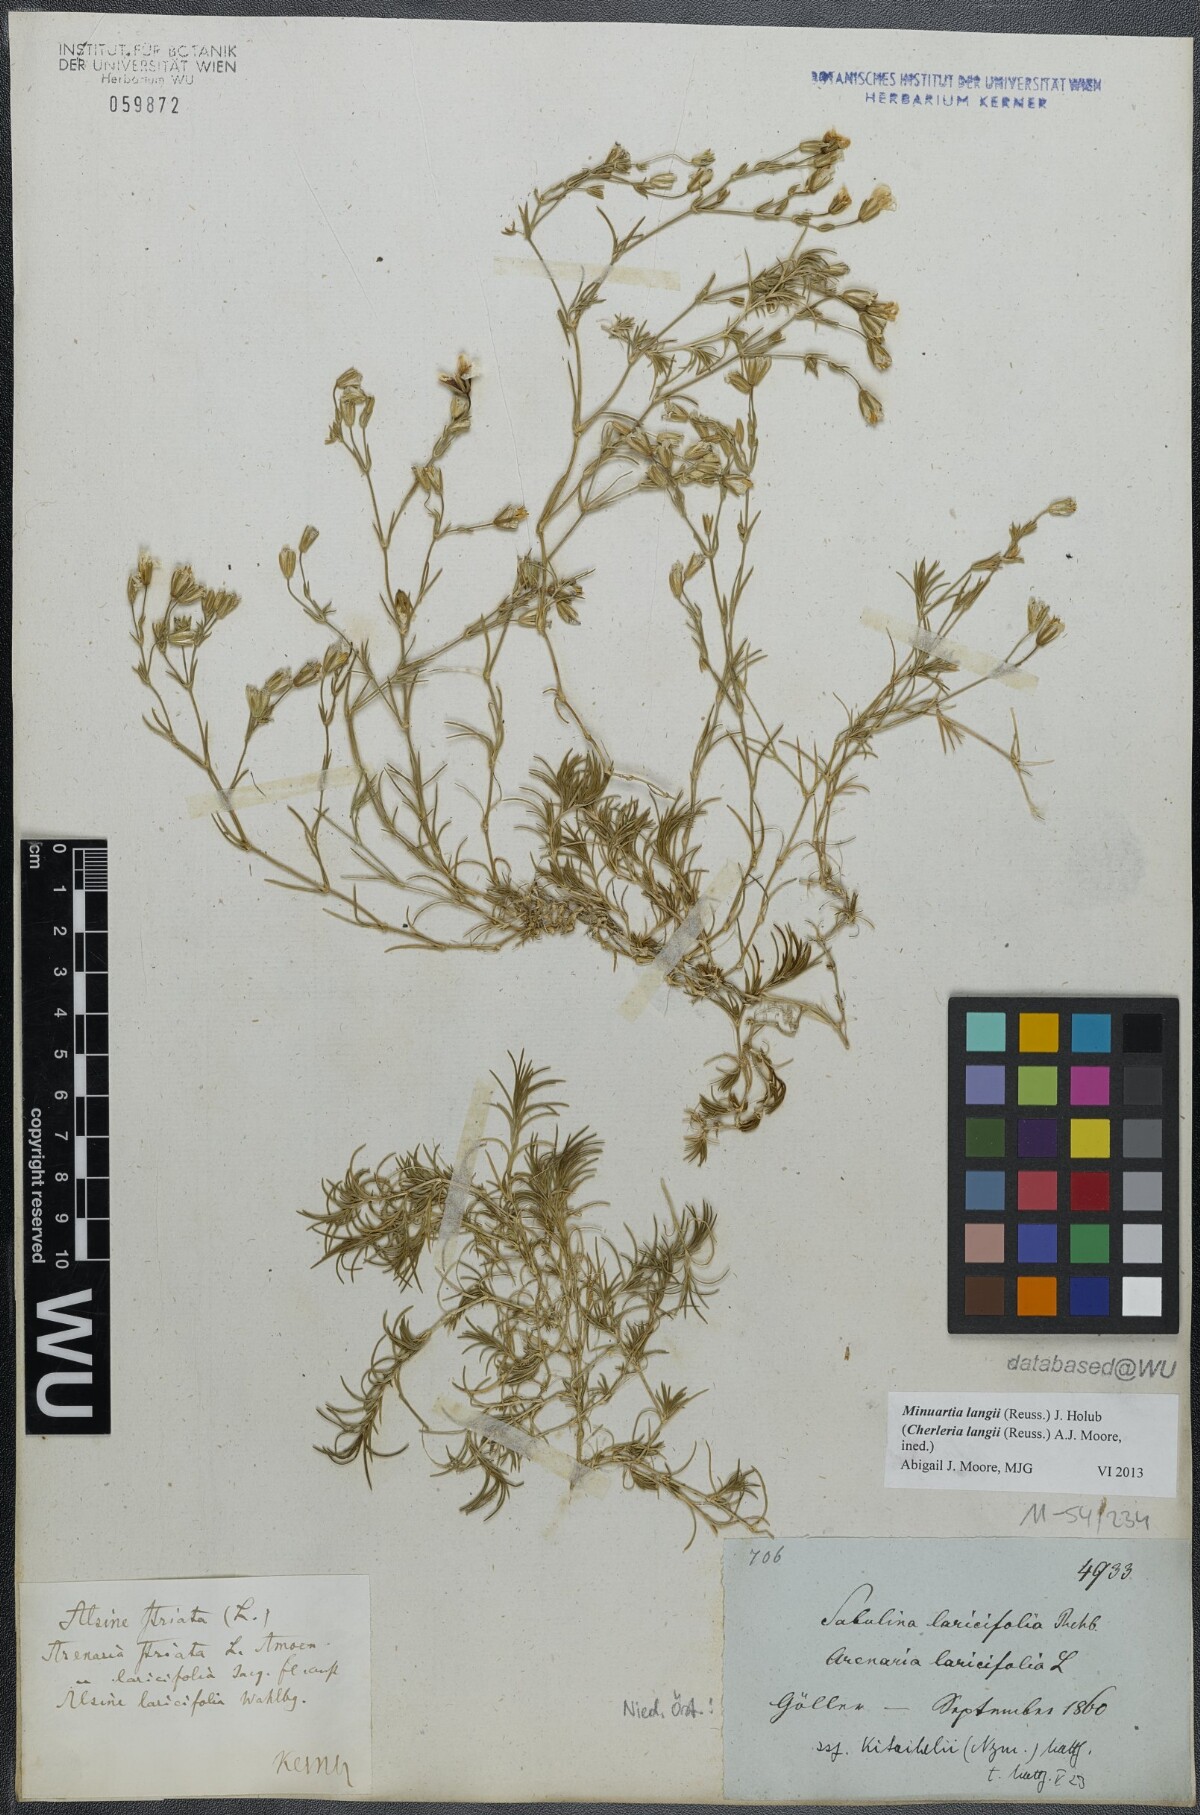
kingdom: Plantae
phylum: Tracheophyta
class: Magnoliopsida
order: Caryophyllales
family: Caryophyllaceae
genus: Cherleria
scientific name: Cherleria langii
